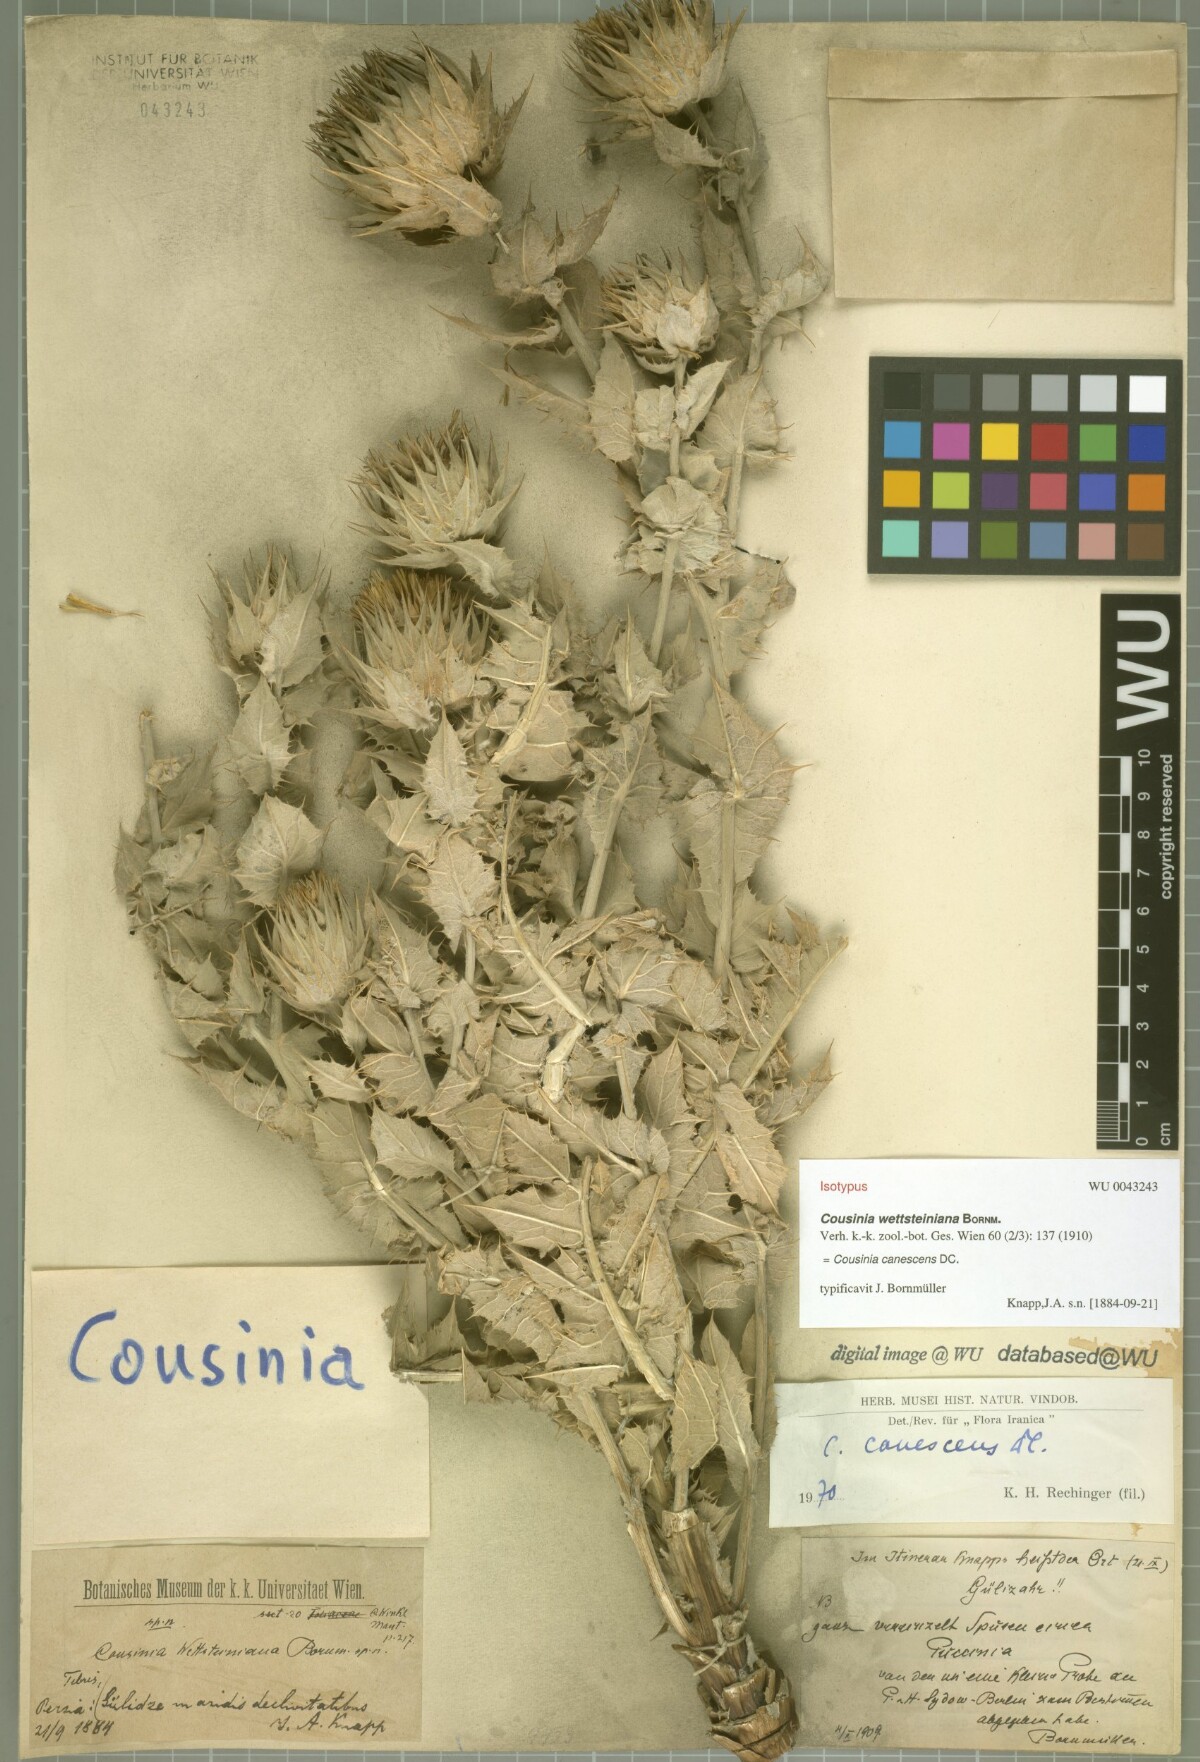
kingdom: Plantae
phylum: Tracheophyta
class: Magnoliopsida
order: Asterales
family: Asteraceae
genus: Cousinia
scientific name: Cousinia canescens
